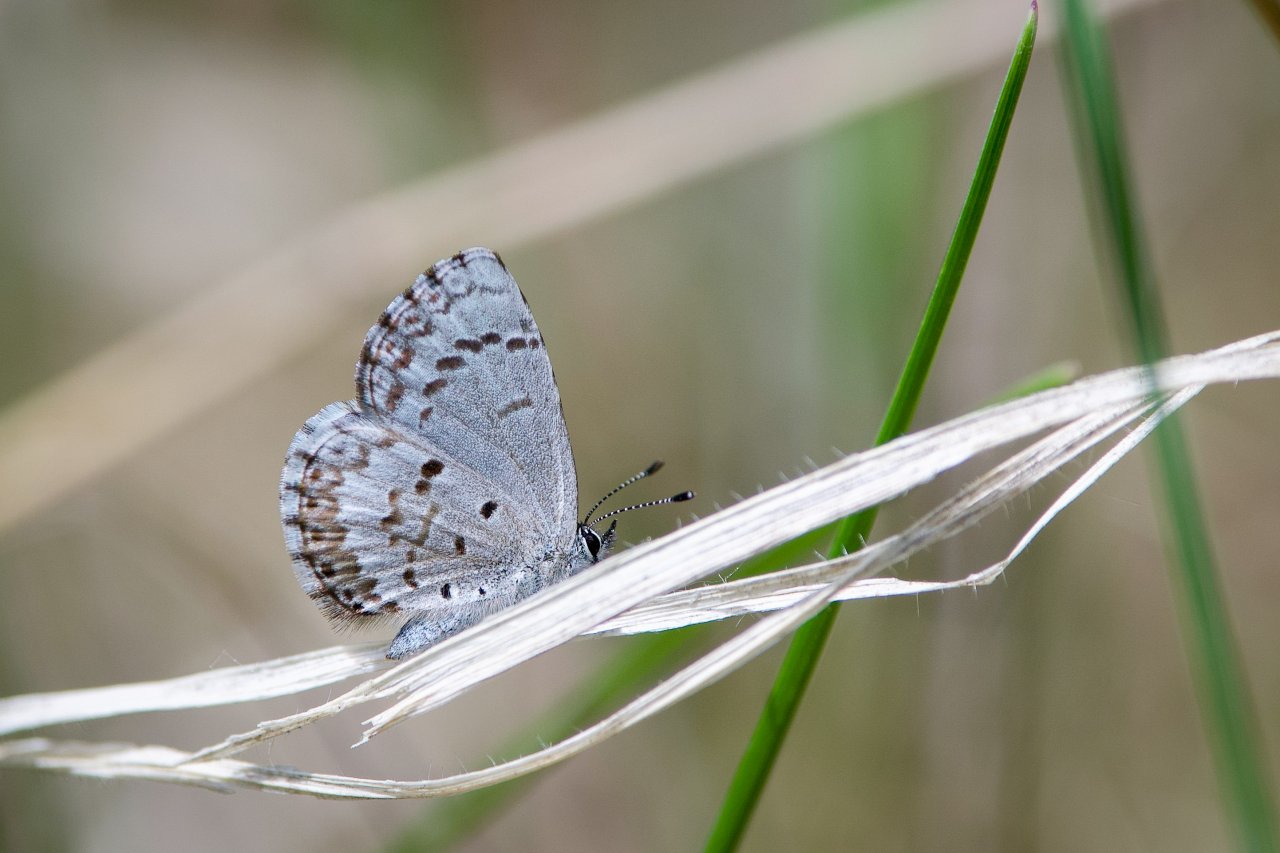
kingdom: Animalia
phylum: Arthropoda
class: Insecta
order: Lepidoptera
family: Lycaenidae
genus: Celastrina
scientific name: Celastrina lucia
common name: Northern Spring Azure
